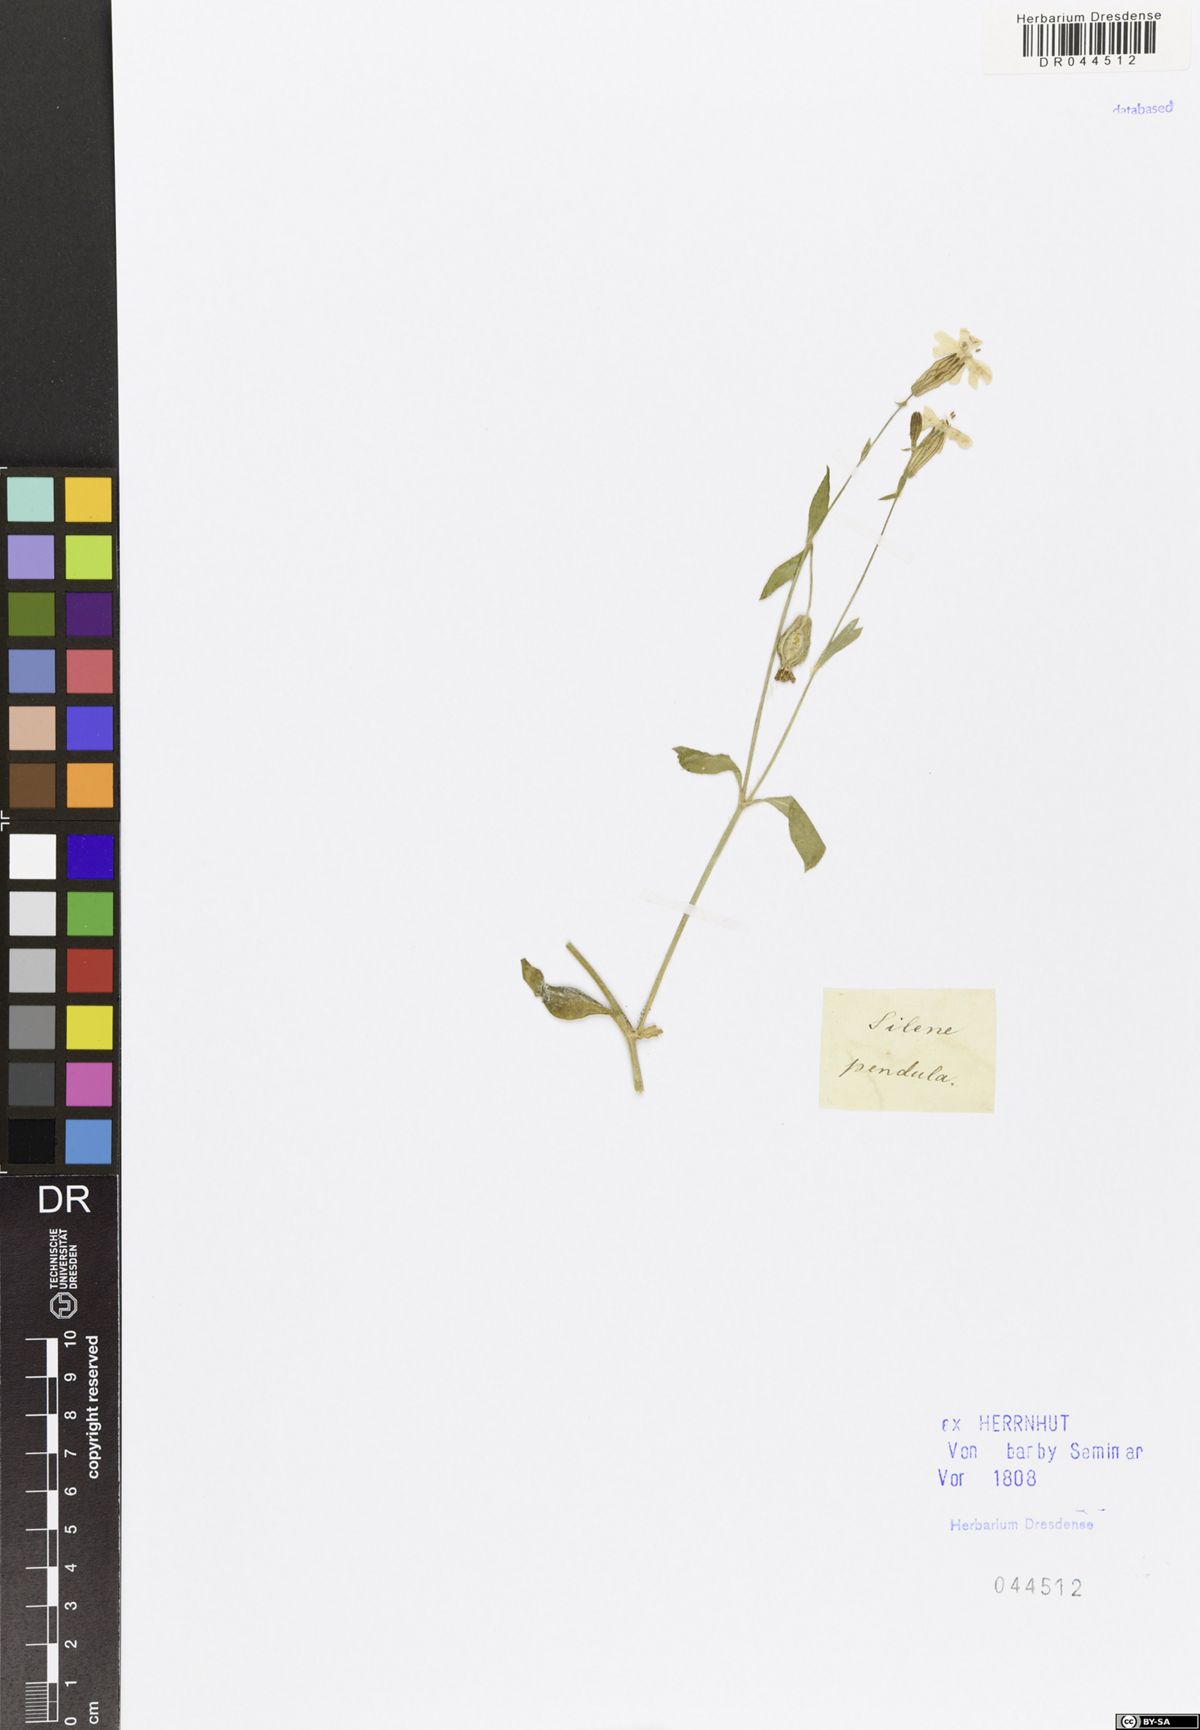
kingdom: Plantae
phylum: Tracheophyta
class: Magnoliopsida
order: Caryophyllales
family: Caryophyllaceae
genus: Silene
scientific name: Silene pendula
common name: Nodding catchfly
